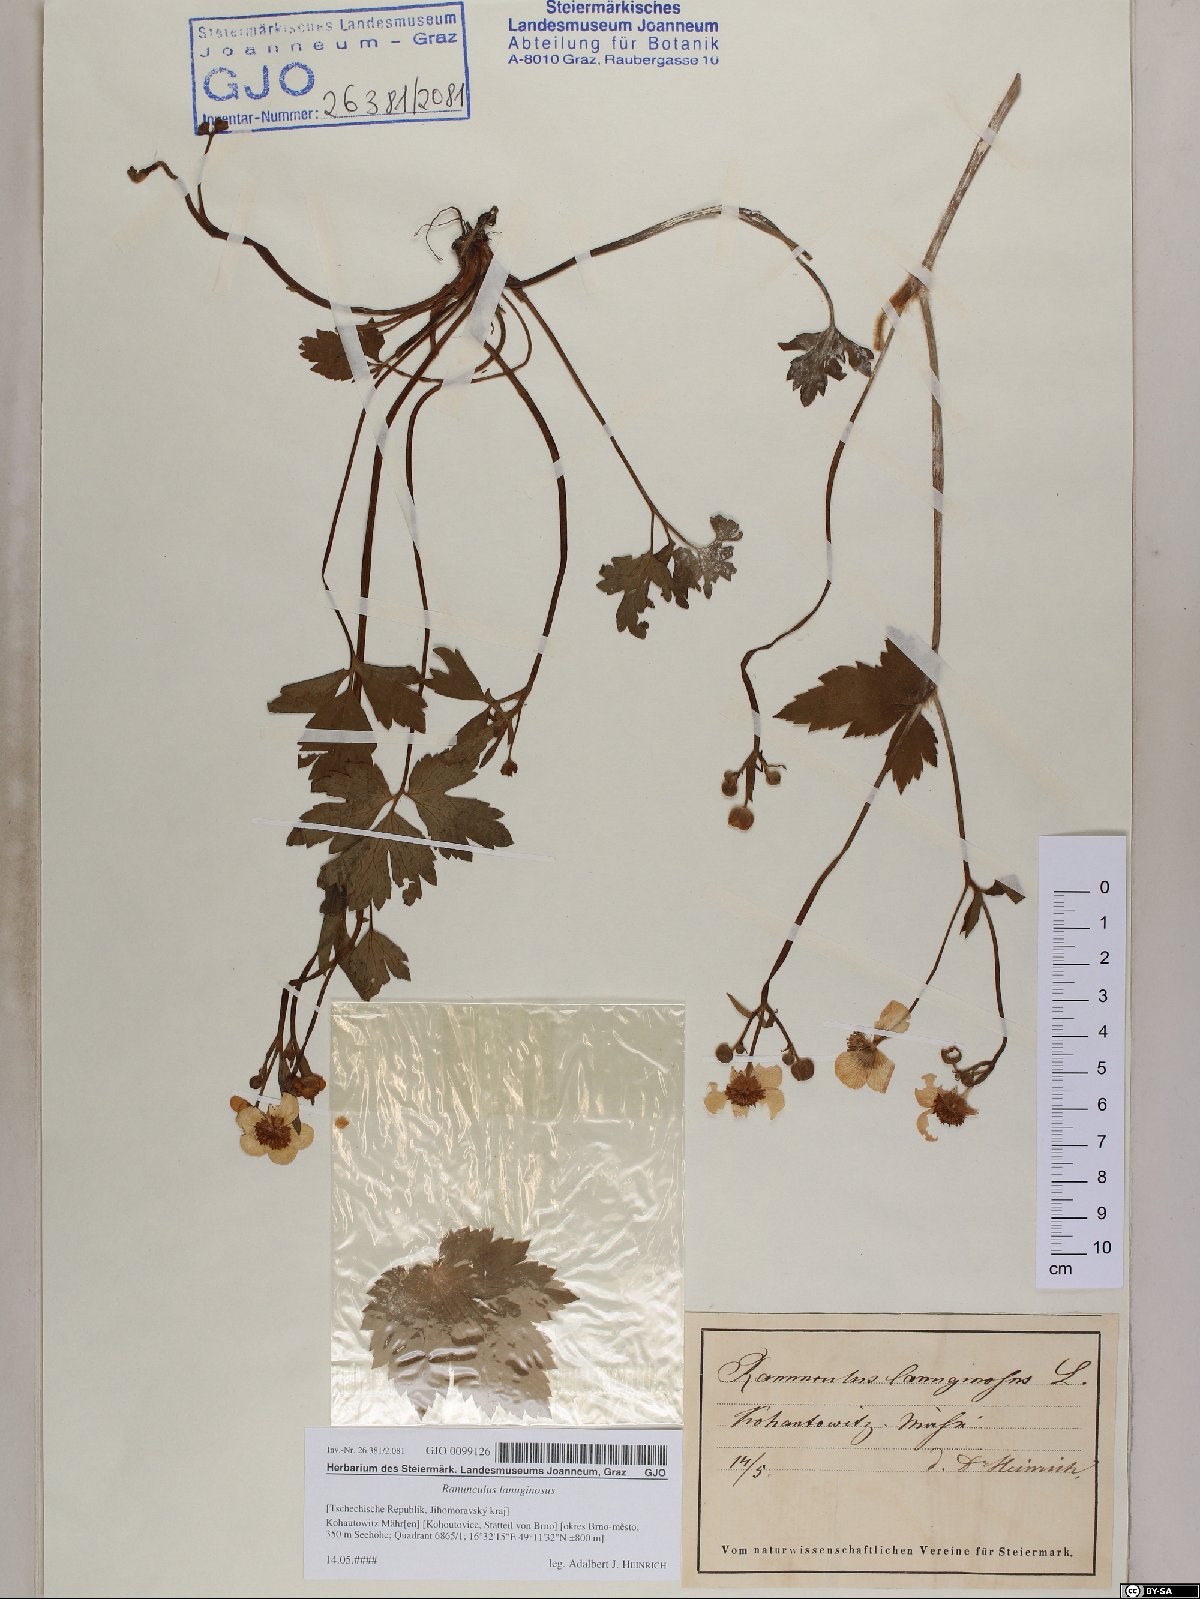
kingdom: Plantae
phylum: Tracheophyta
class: Magnoliopsida
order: Ranunculales
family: Ranunculaceae
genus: Ranunculus
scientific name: Ranunculus lanuginosus
